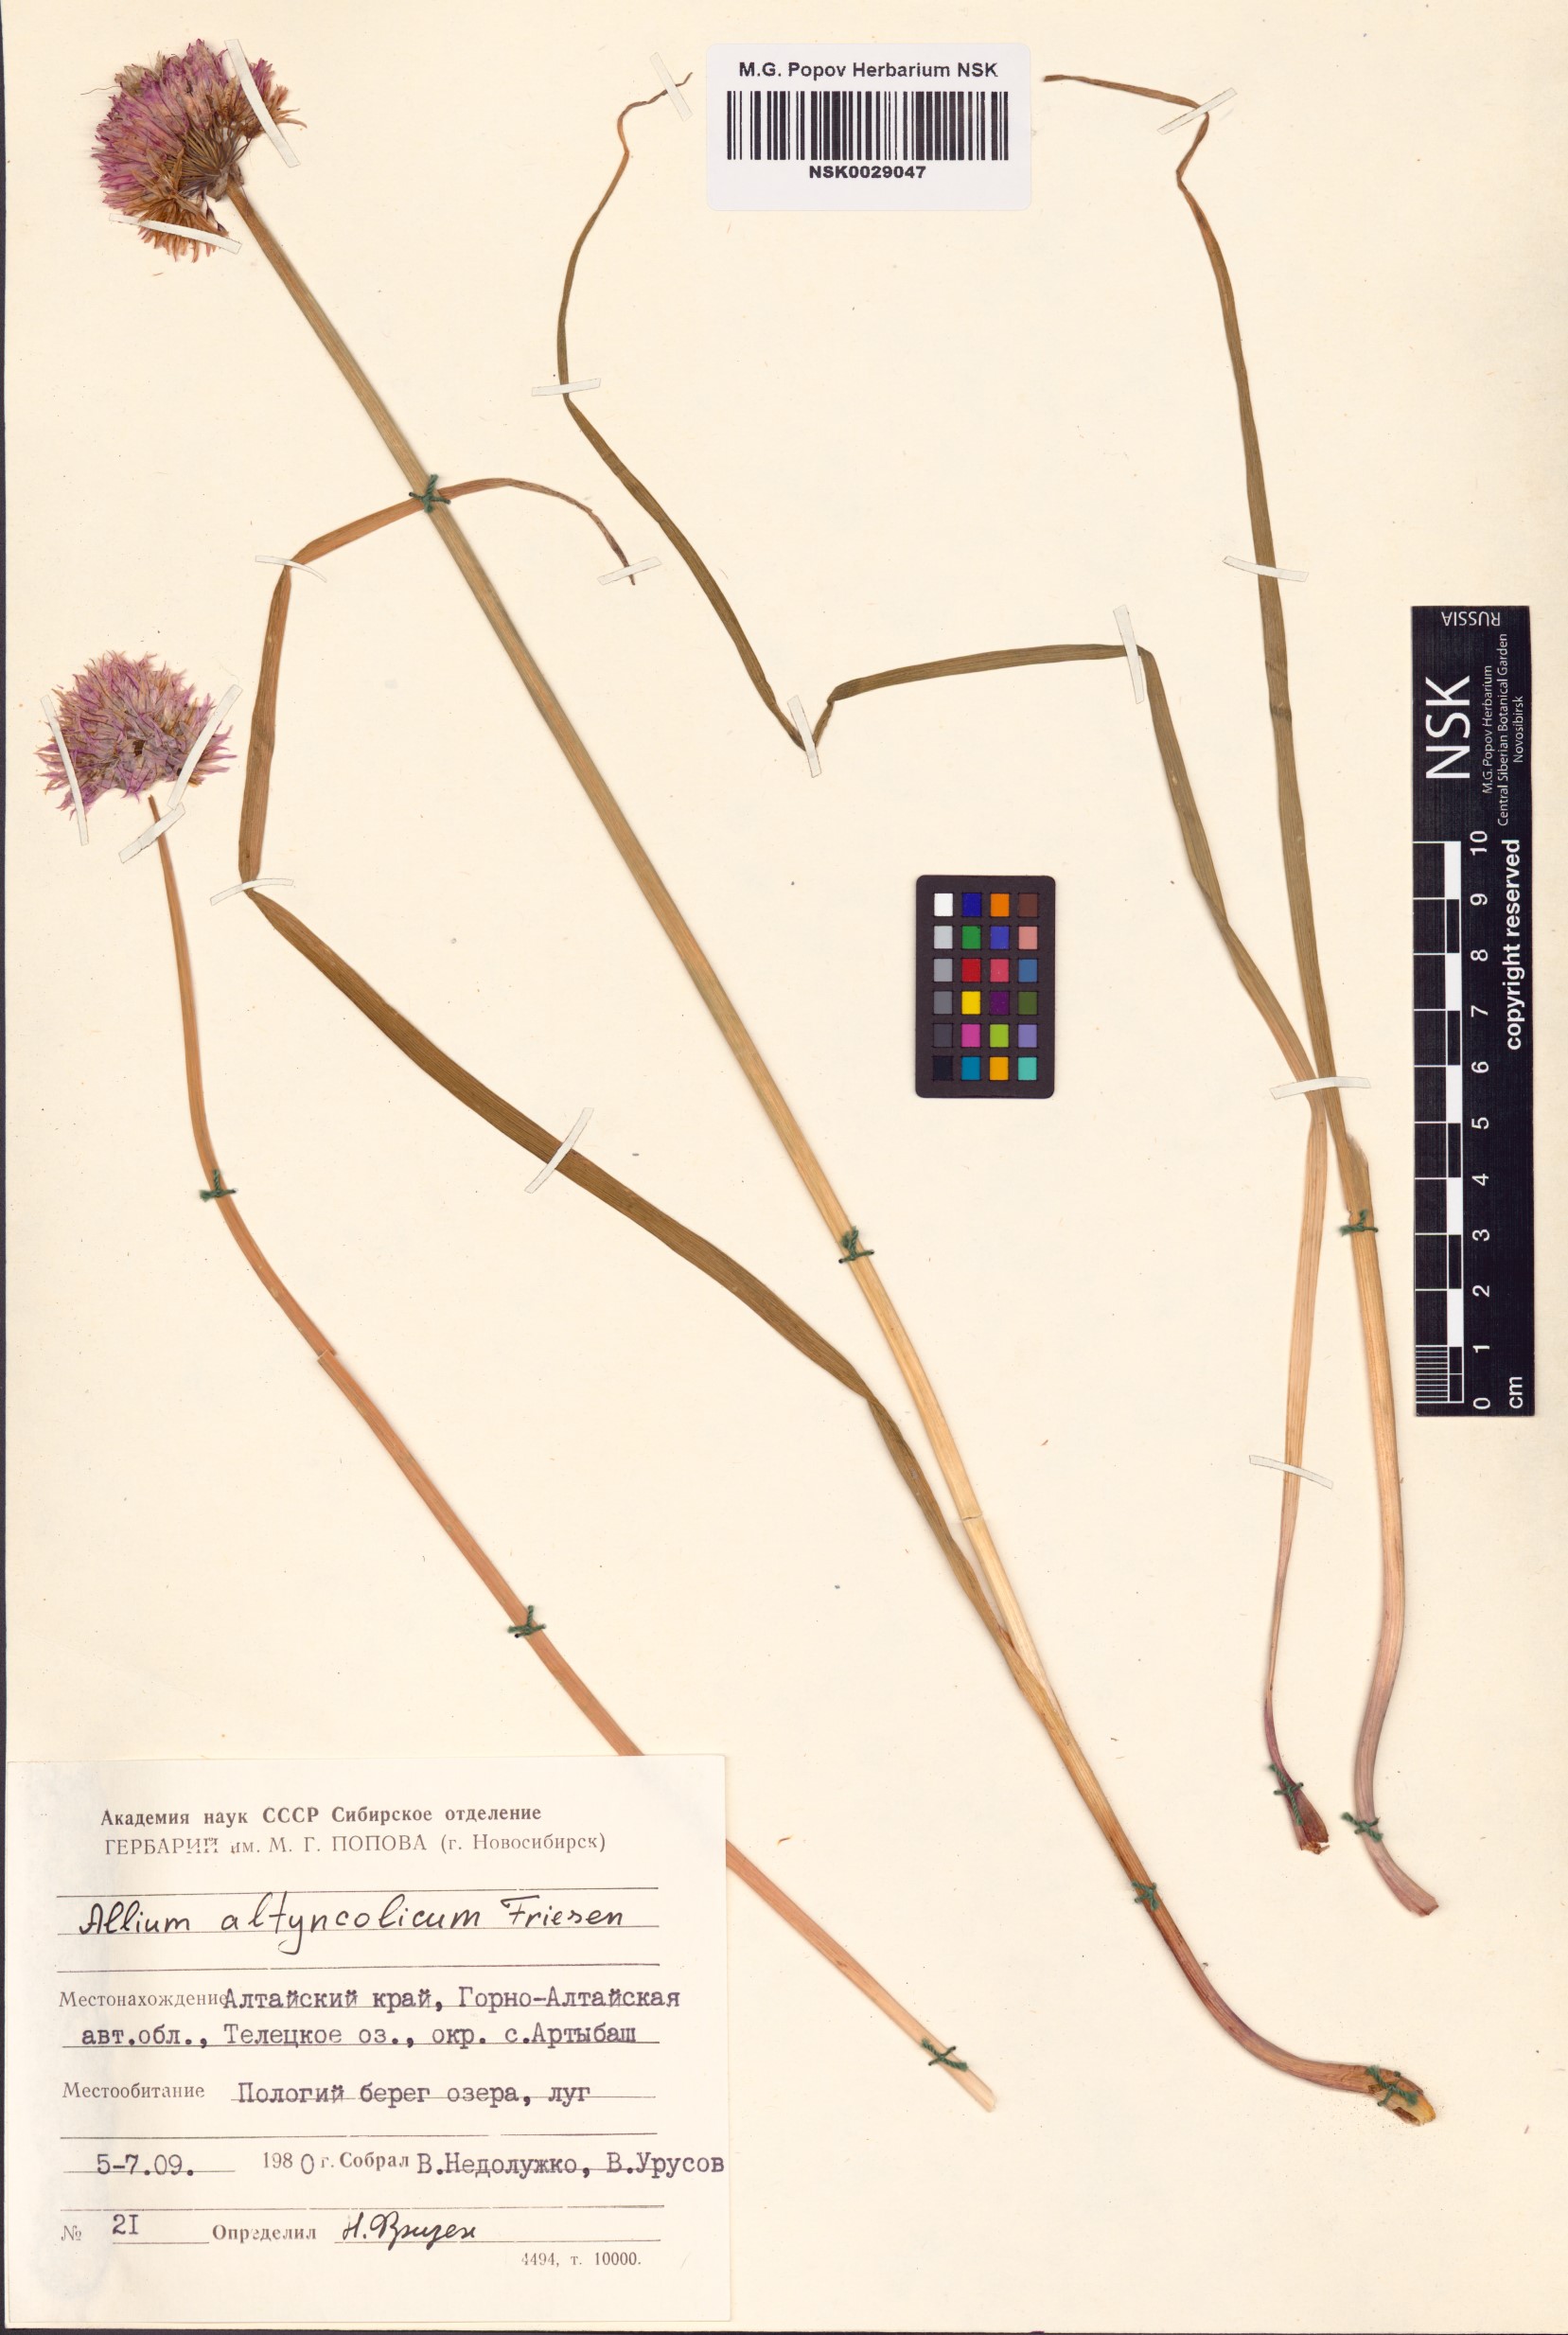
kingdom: Plantae
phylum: Tracheophyta
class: Liliopsida
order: Asparagales
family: Amaryllidaceae
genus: Allium
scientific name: Allium altyncolicum
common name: Altynkol chive
